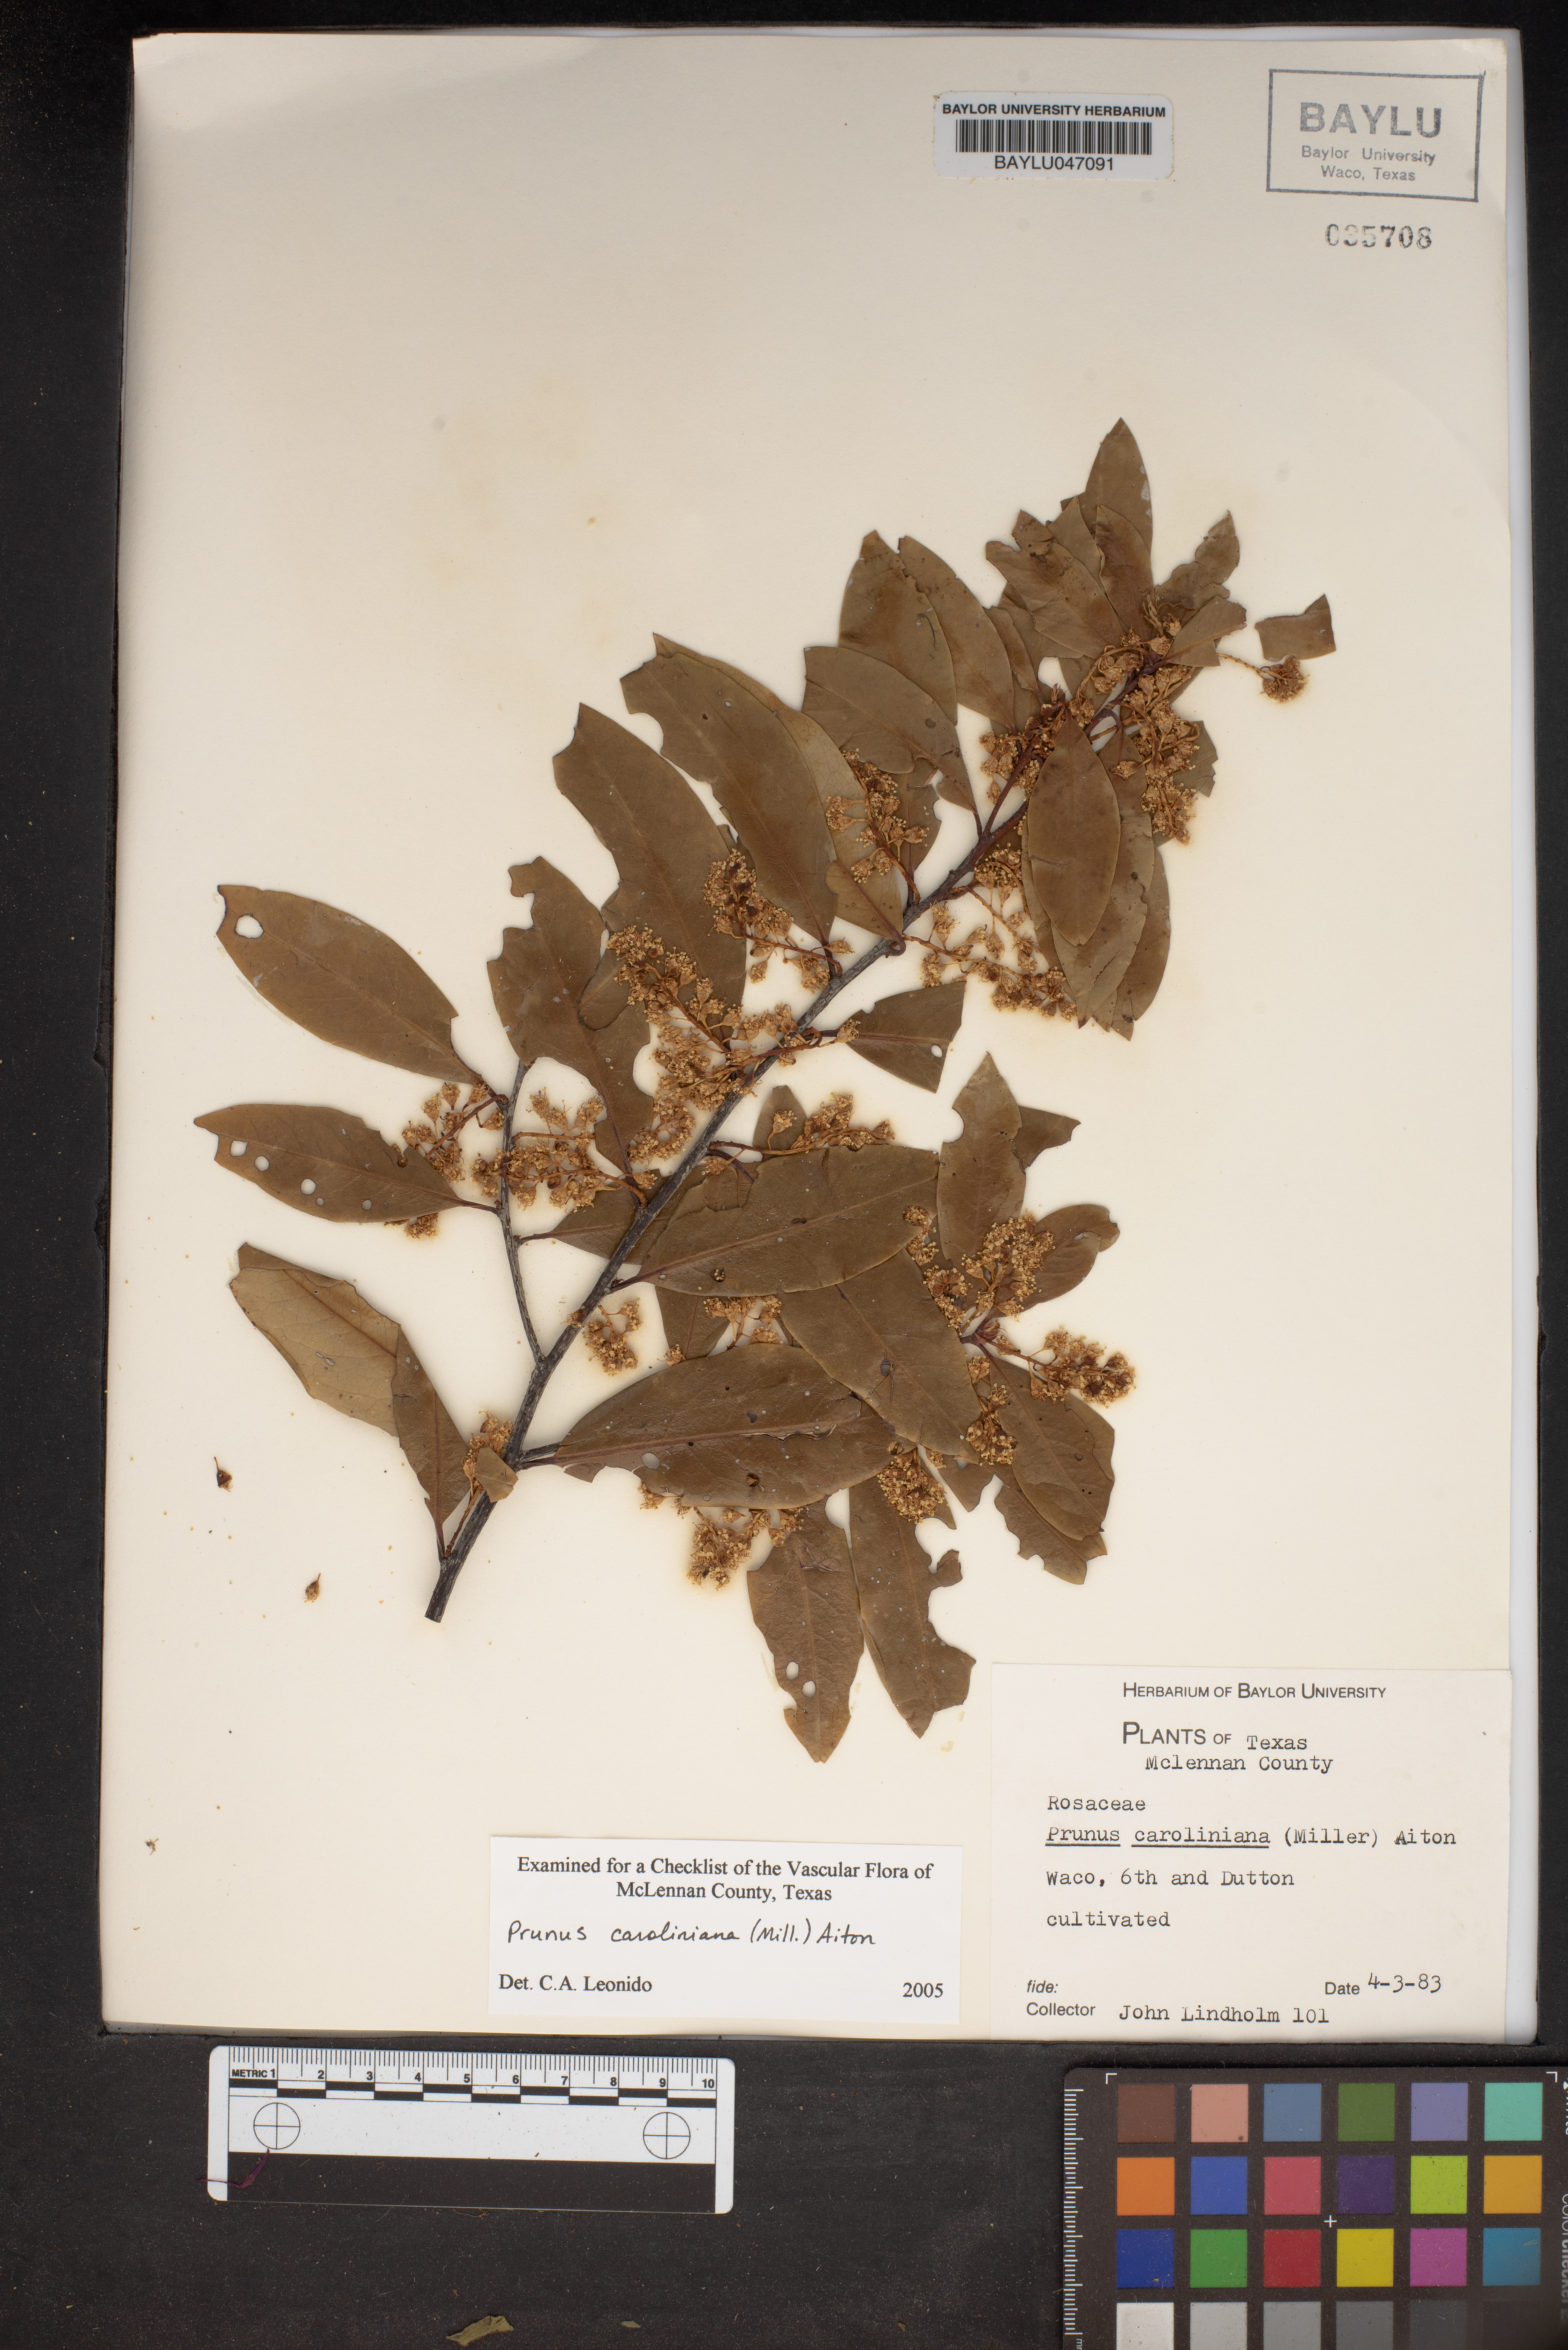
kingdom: Plantae
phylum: Tracheophyta
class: Magnoliopsida
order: Rosales
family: Rosaceae
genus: Prunus
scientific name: Prunus caroliniana
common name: Carolina laurel cherry
